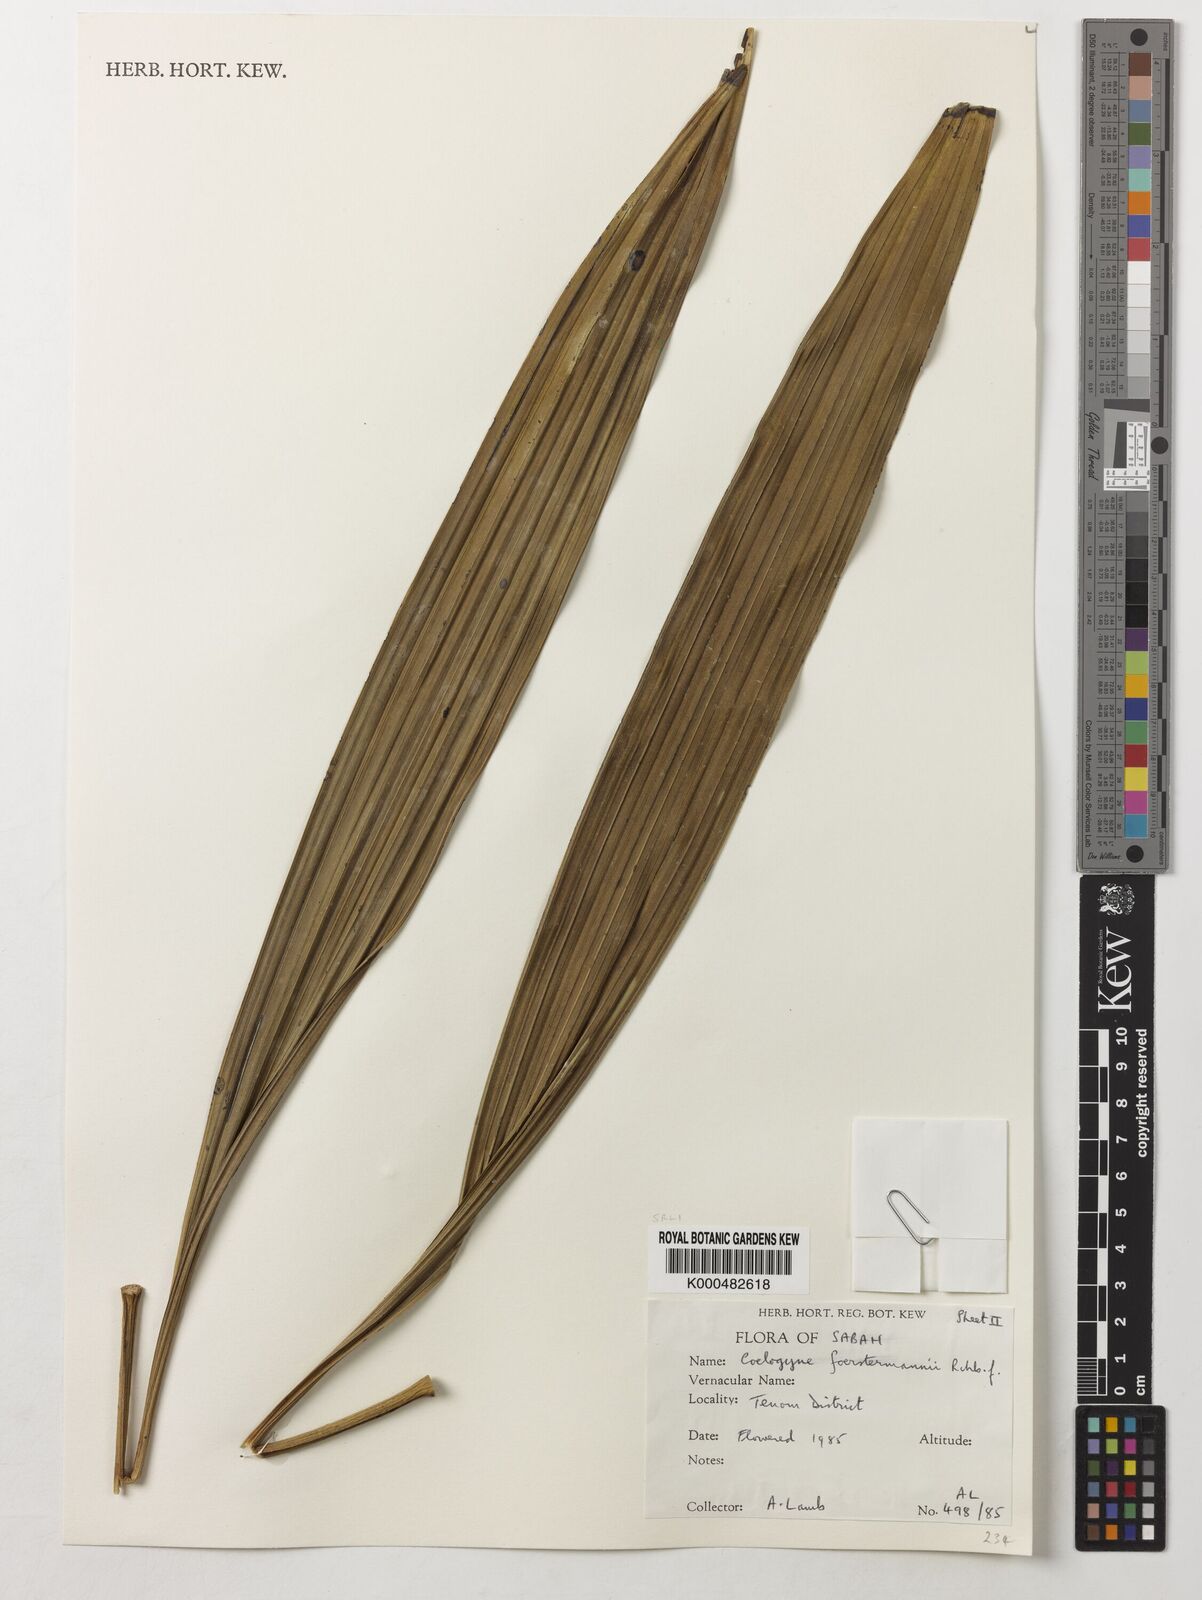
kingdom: Plantae
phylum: Tracheophyta
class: Liliopsida
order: Asparagales
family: Orchidaceae
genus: Coelogyne
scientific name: Coelogyne
